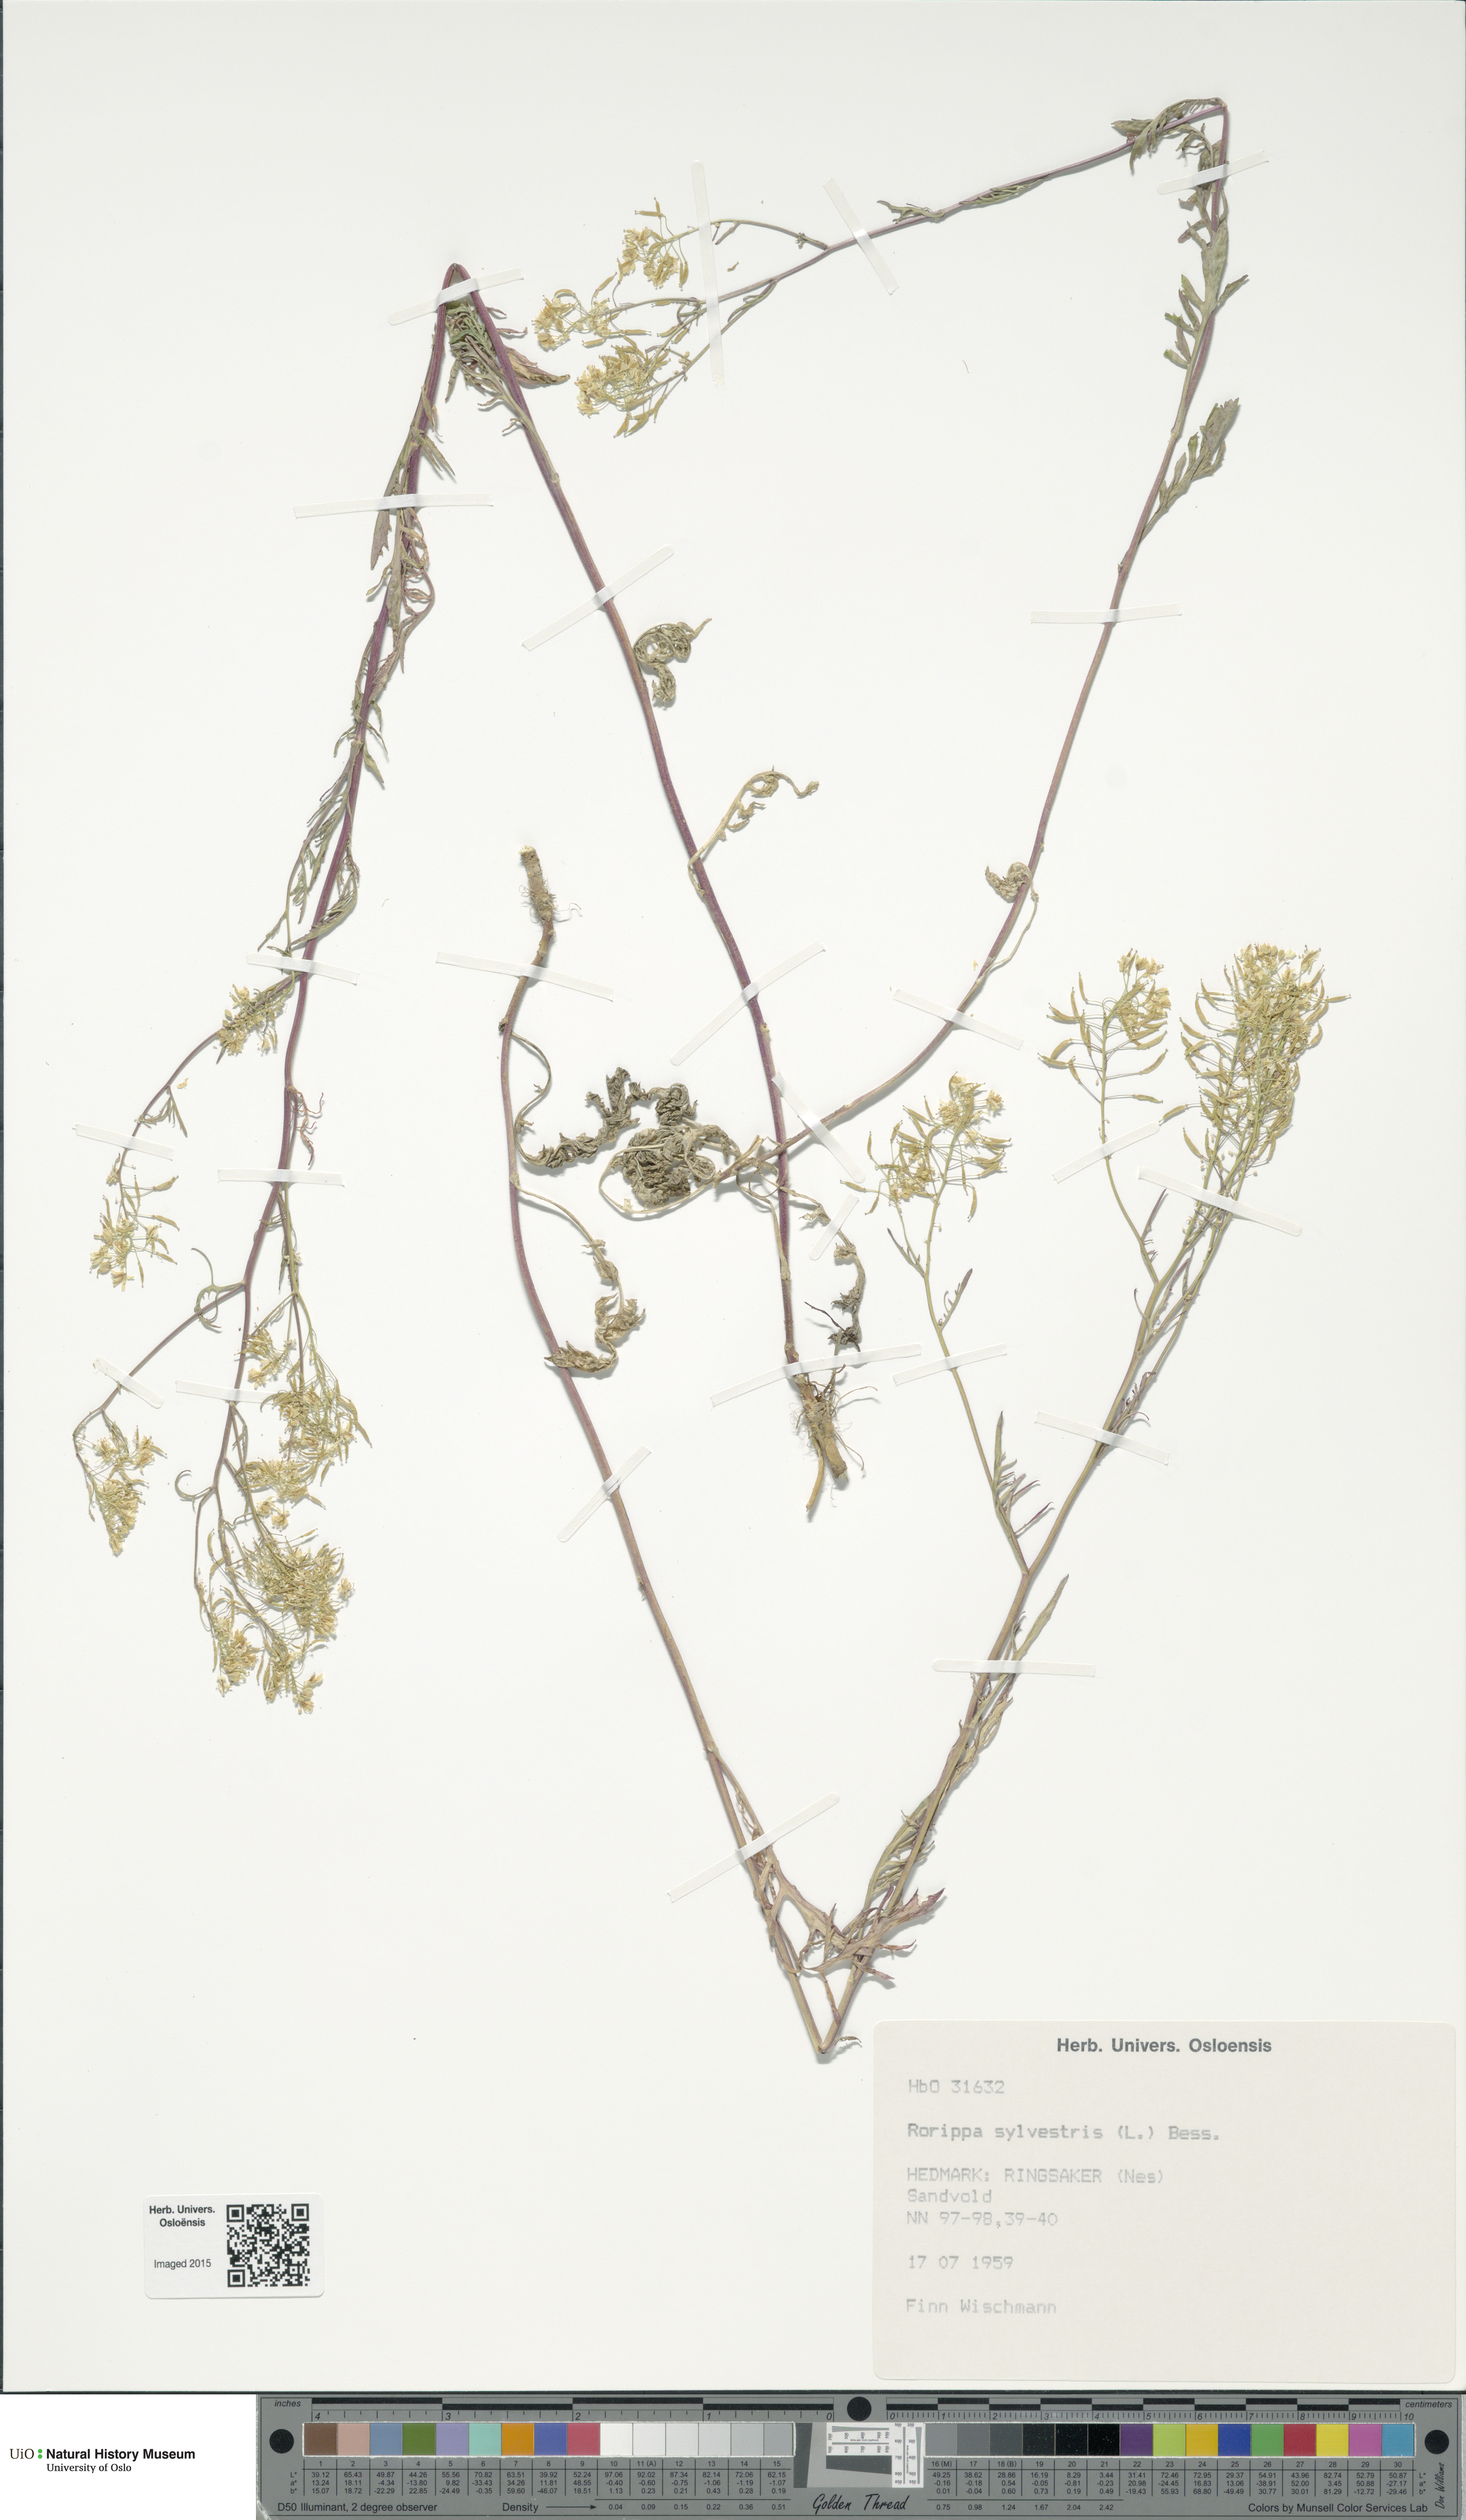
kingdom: Plantae
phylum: Tracheophyta
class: Magnoliopsida
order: Brassicales
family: Brassicaceae
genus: Rorippa
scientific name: Rorippa sylvestris
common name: Creeping yellowcress
